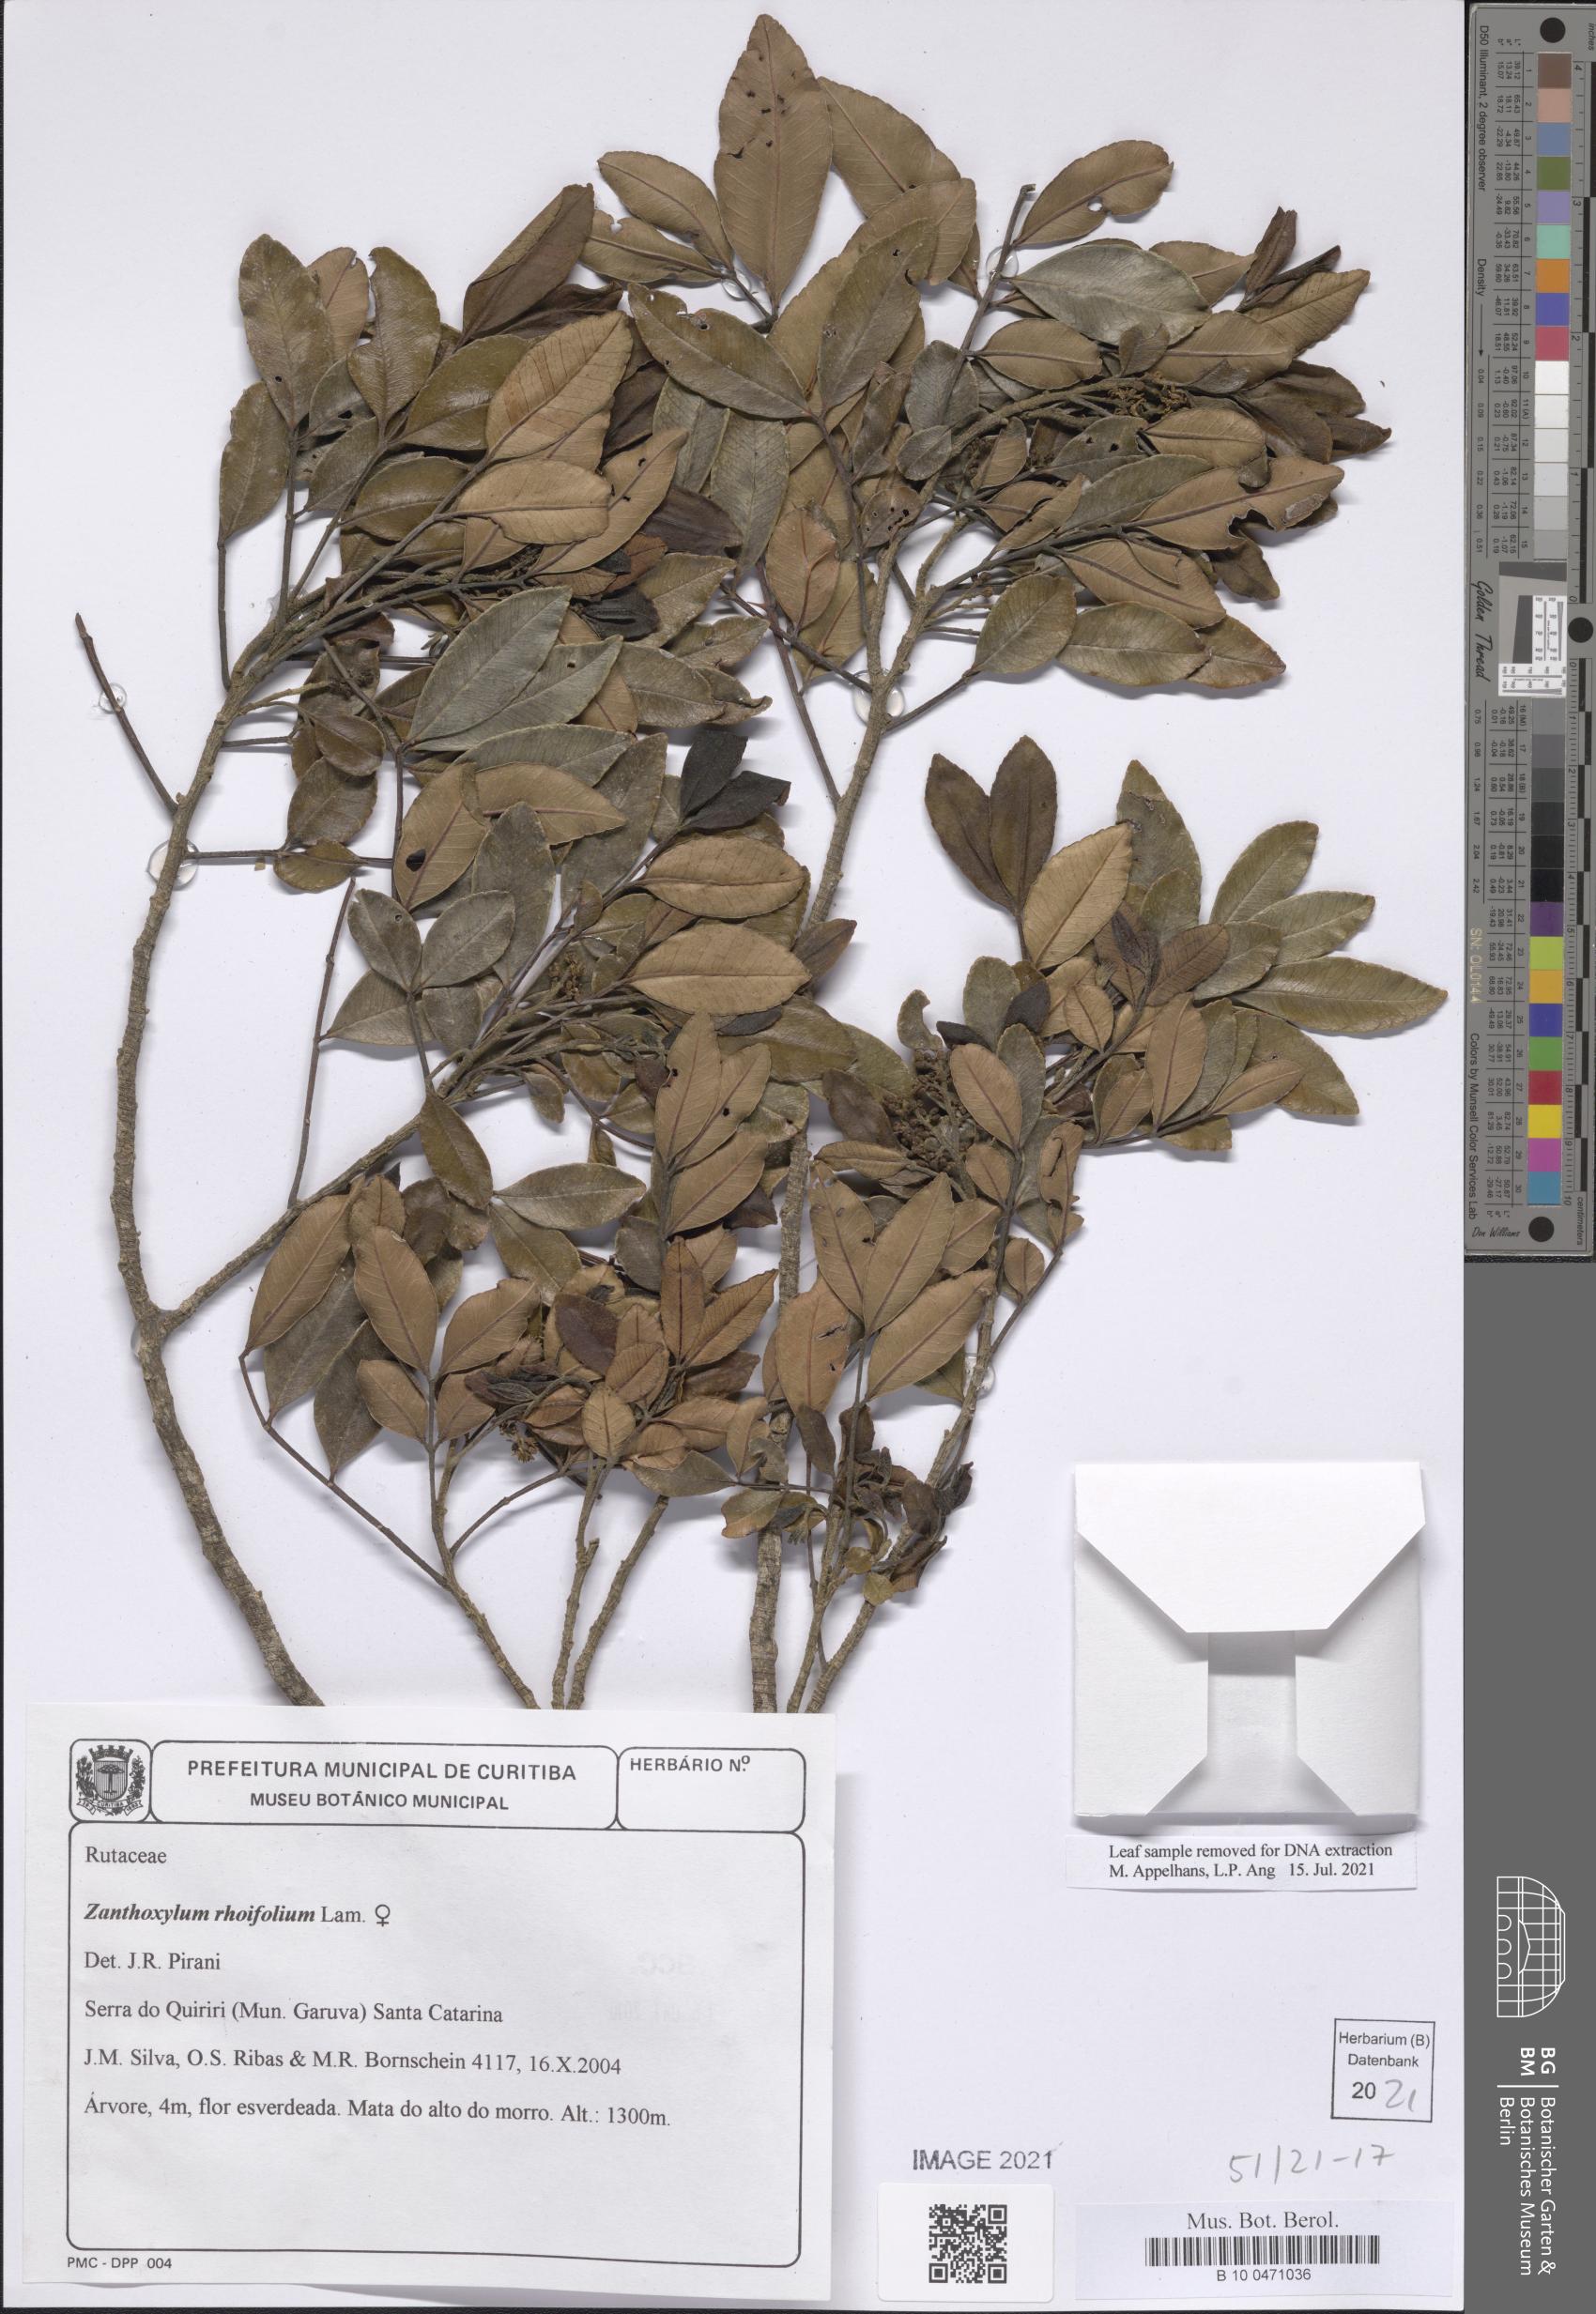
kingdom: Plantae
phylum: Tracheophyta
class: Magnoliopsida
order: Sapindales
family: Rutaceae
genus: Zanthoxylum
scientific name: Zanthoxylum rhoifolium
